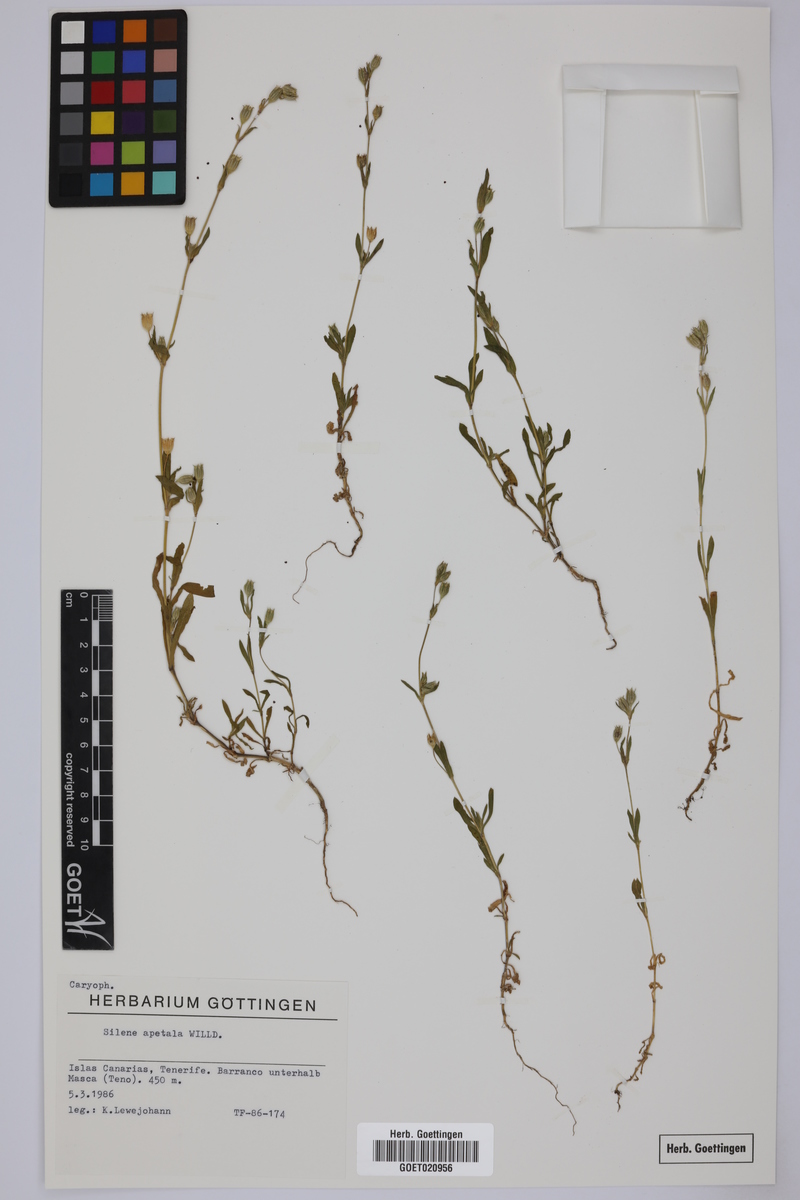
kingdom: Plantae
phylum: Tracheophyta
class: Magnoliopsida
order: Caryophyllales
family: Caryophyllaceae
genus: Silene
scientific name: Silene apetala
